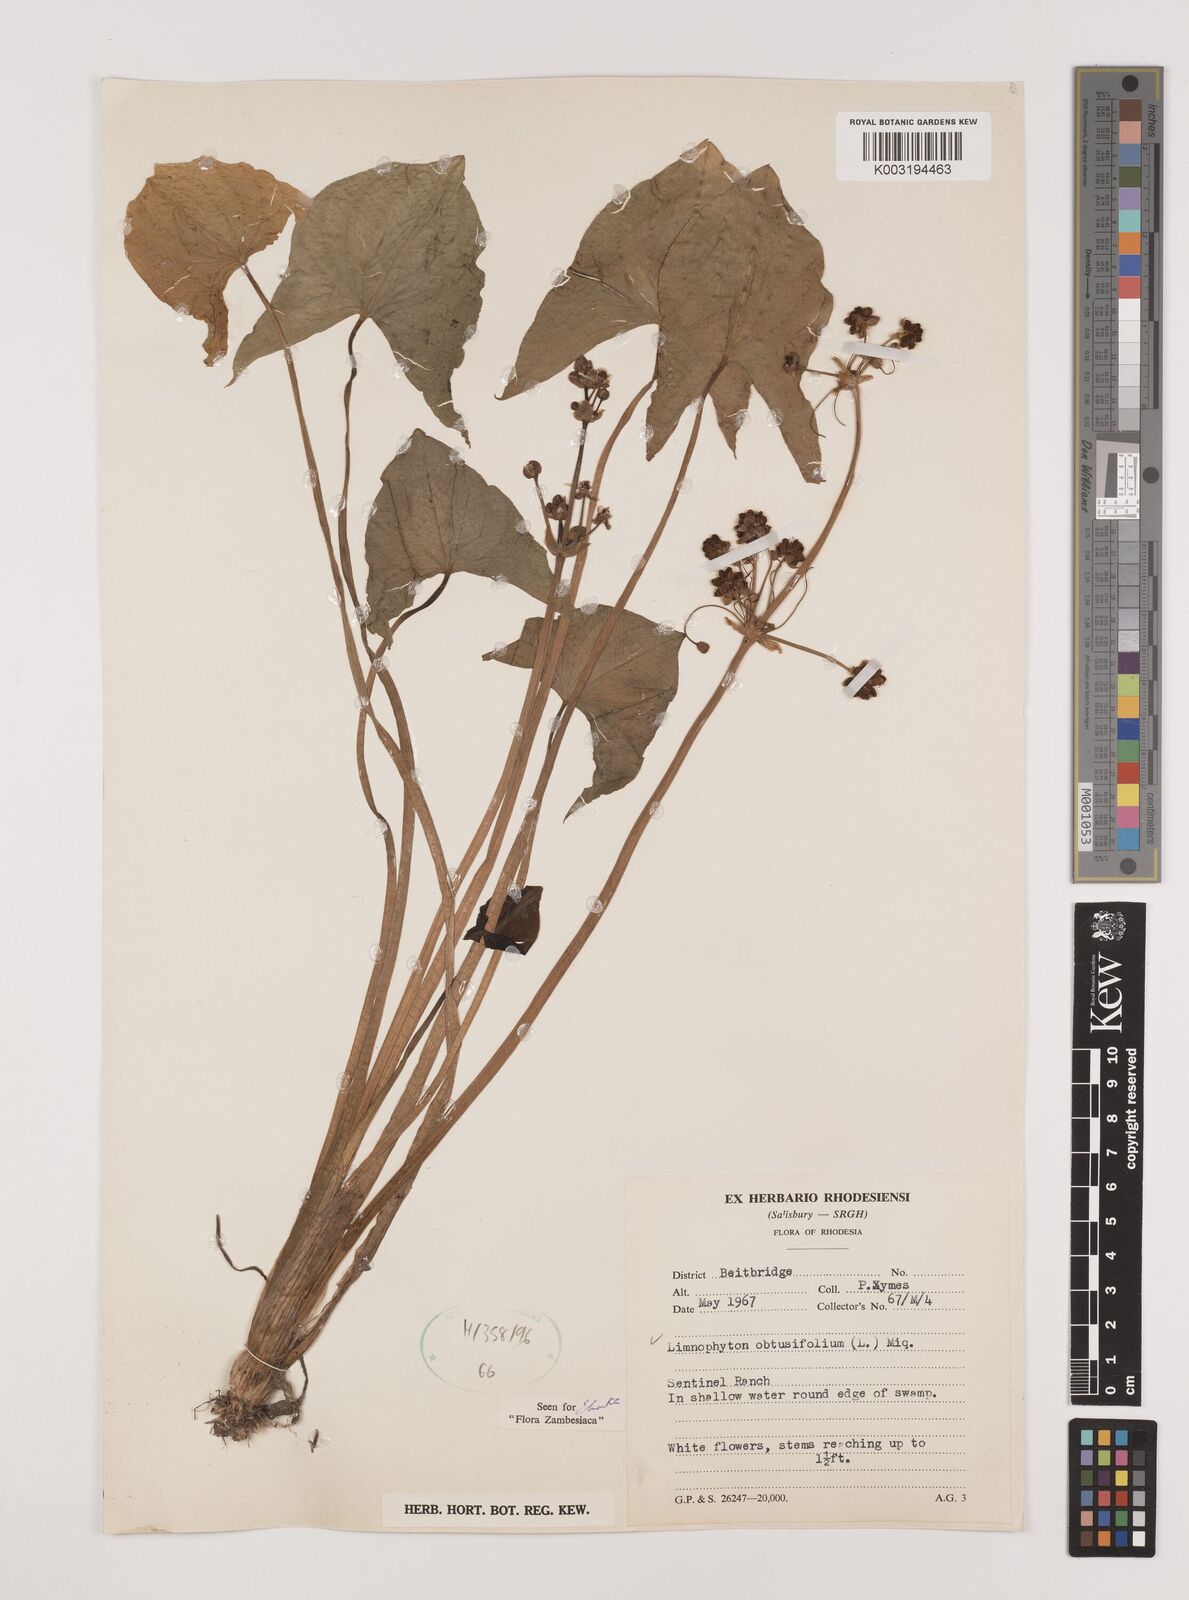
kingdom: Plantae
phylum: Tracheophyta
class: Liliopsida
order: Alismatales
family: Alismataceae
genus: Limnophyton
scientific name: Limnophyton obtusifolium
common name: Arrow head
